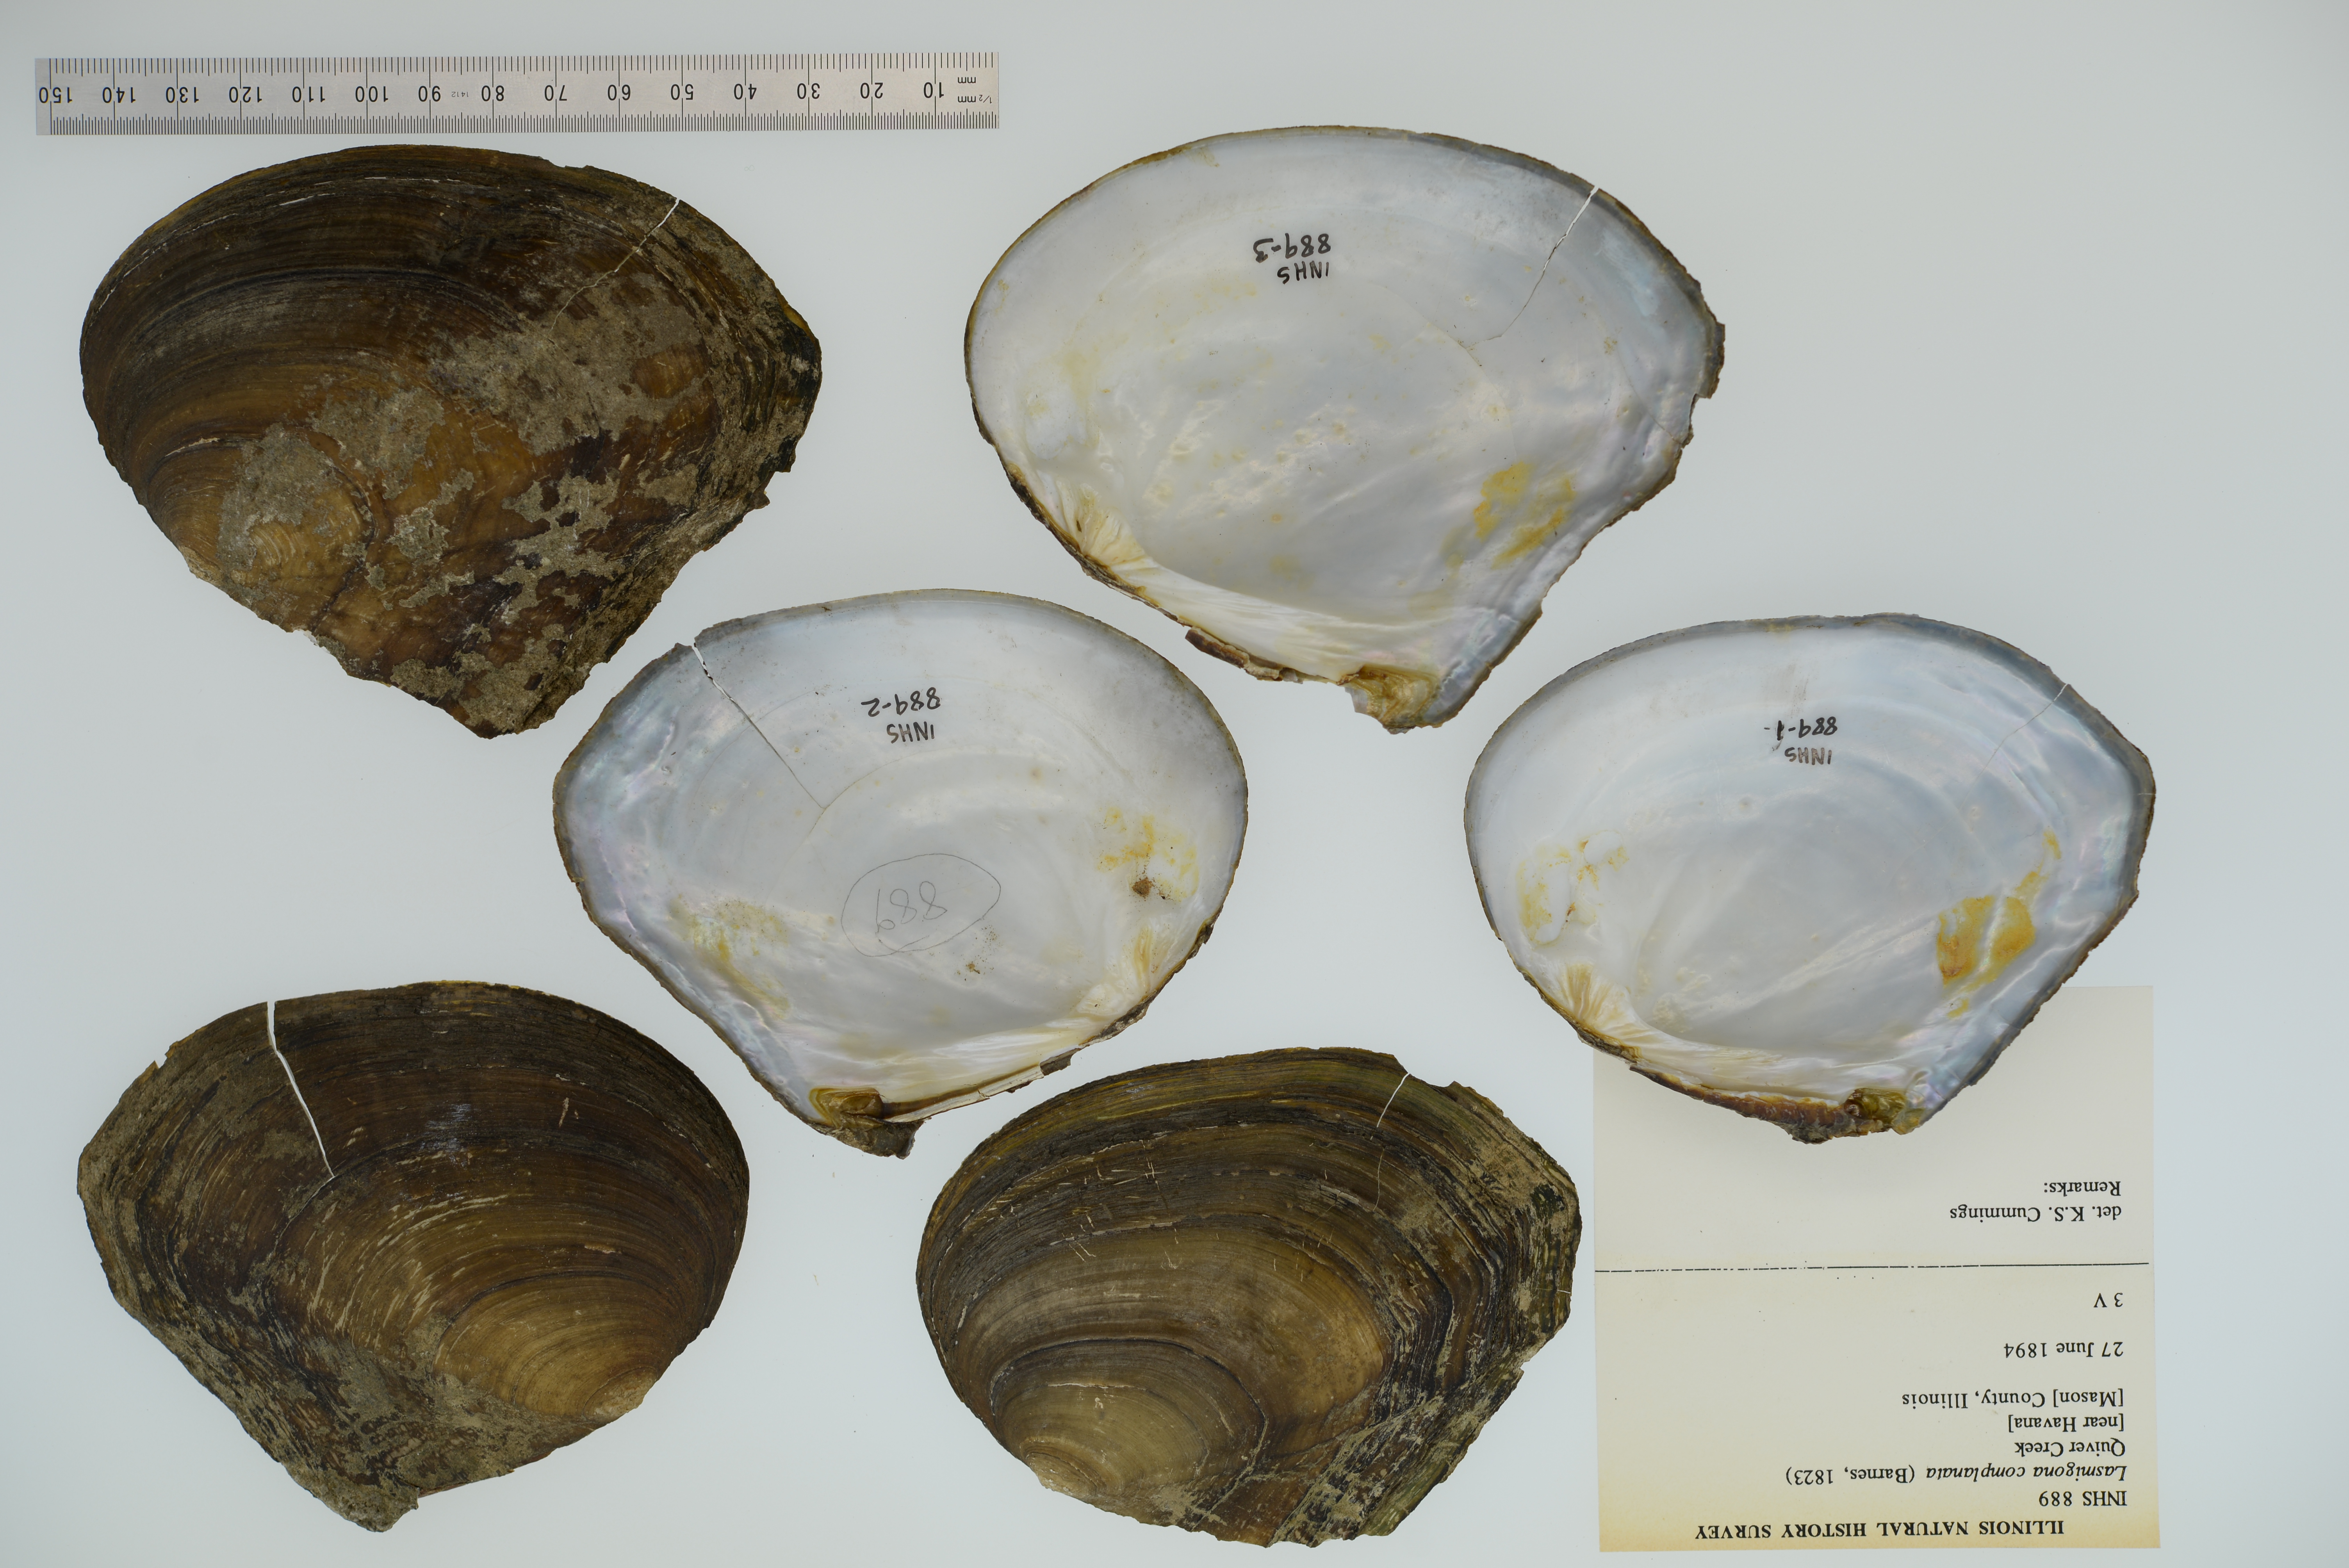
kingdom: Animalia
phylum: Mollusca
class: Bivalvia
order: Unionida
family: Unionidae
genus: Lasmigona
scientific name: Lasmigona complanata
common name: White heelsplitter
